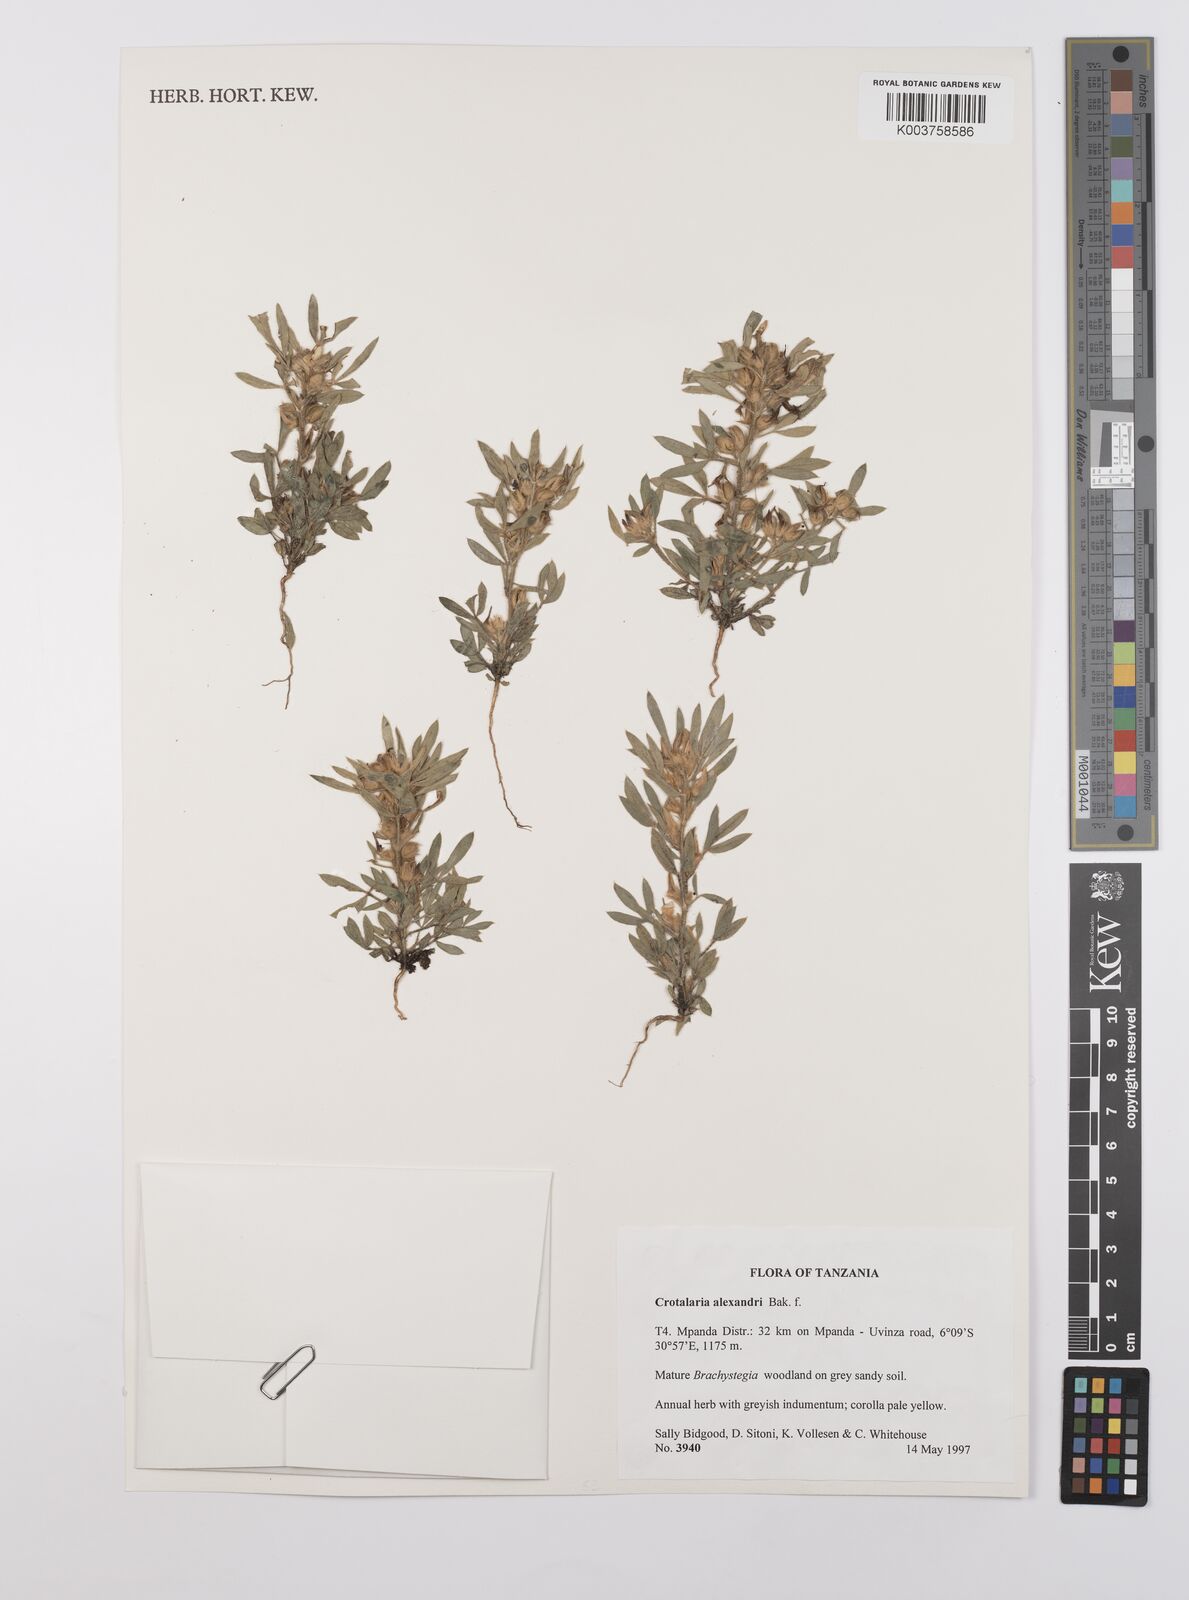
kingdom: Plantae
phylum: Tracheophyta
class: Magnoliopsida
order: Fabales
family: Fabaceae
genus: Crotalaria
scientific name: Crotalaria alexandri
